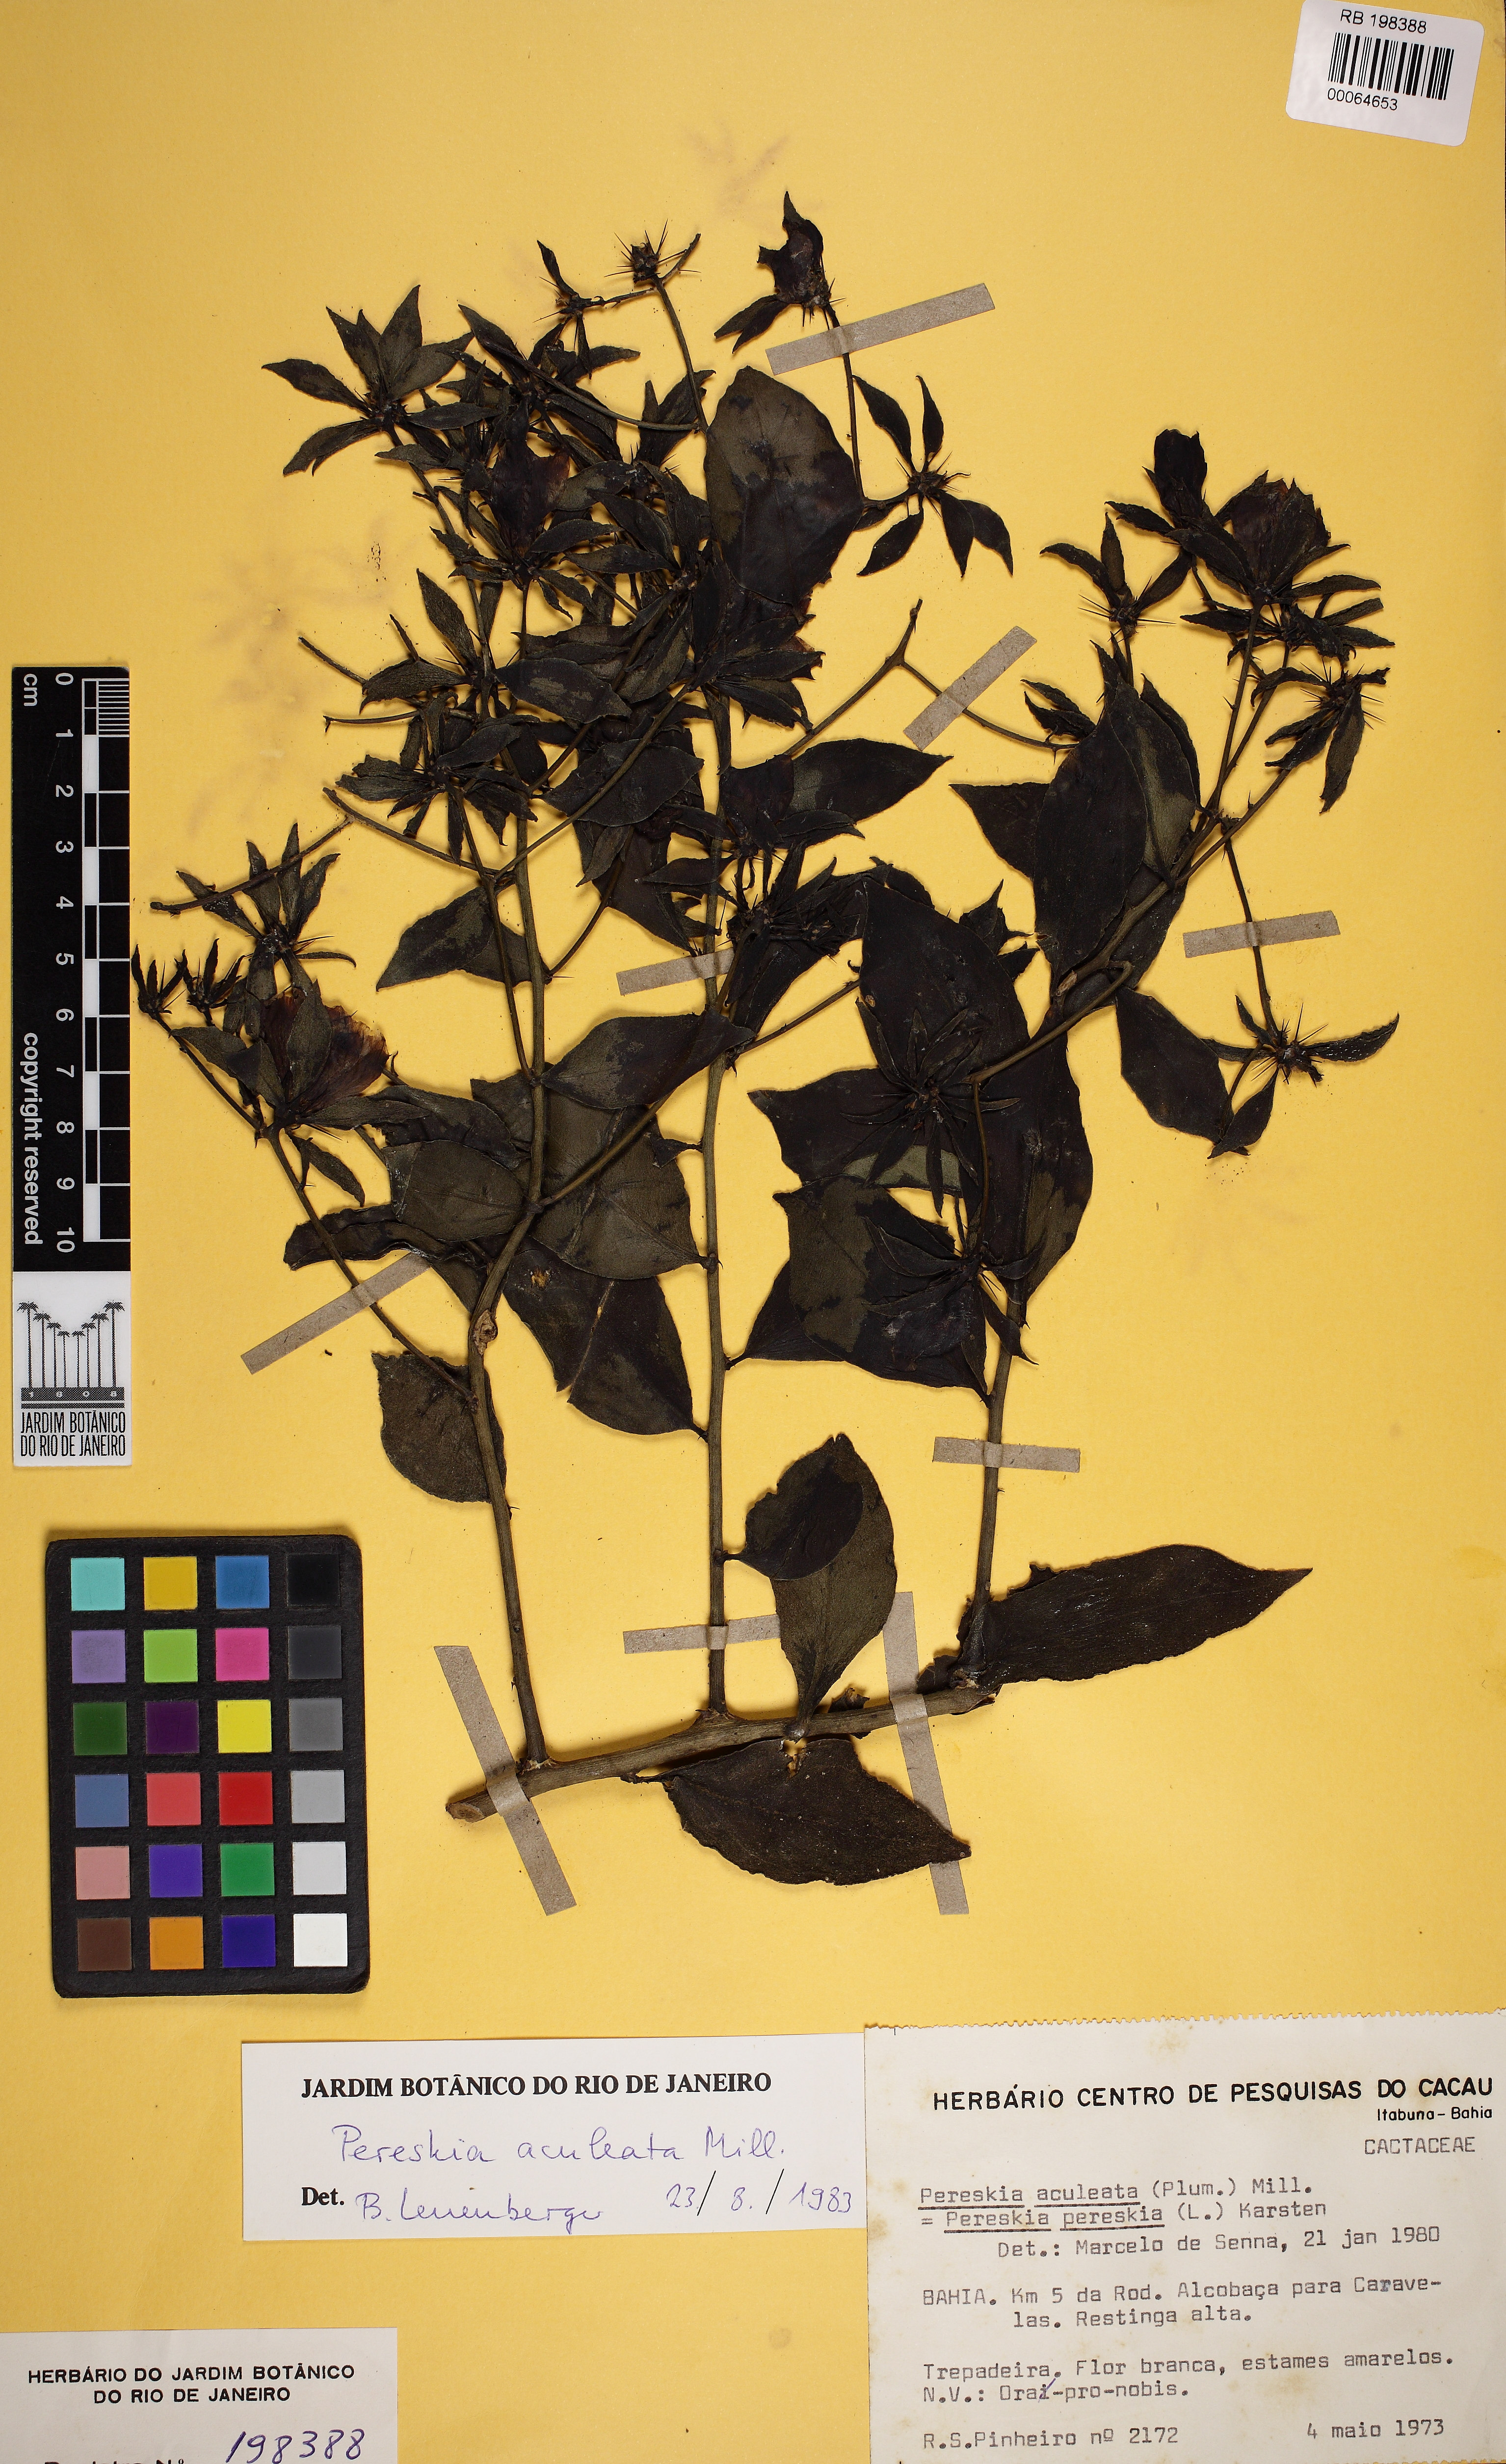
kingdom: Plantae
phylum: Tracheophyta
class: Magnoliopsida
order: Caryophyllales
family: Cactaceae
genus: Pereskia
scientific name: Pereskia aculeata
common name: Barbados gooseberry
